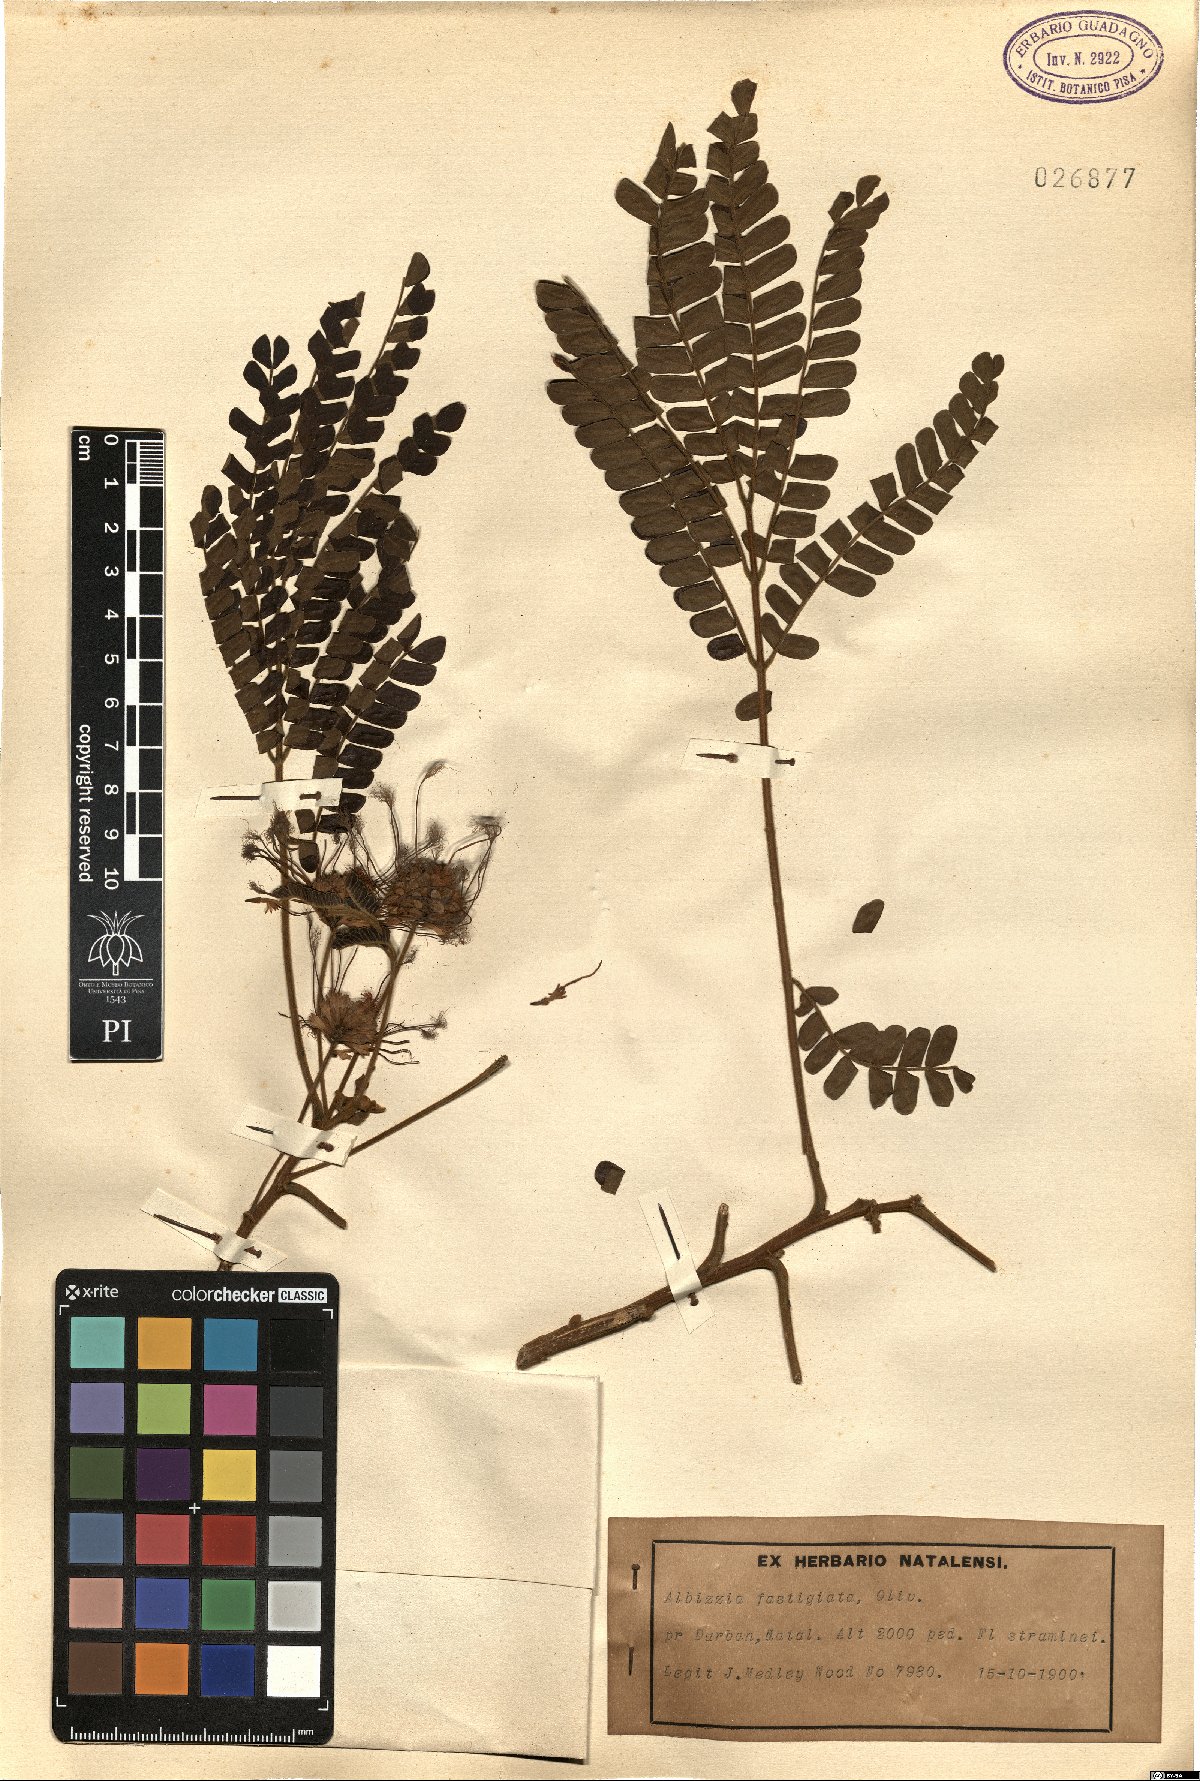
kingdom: Plantae
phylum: Tracheophyta
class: Magnoliopsida
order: Fabales
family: Fabaceae
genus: Albizia
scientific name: Albizia adianthifolia
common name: West african albizia
